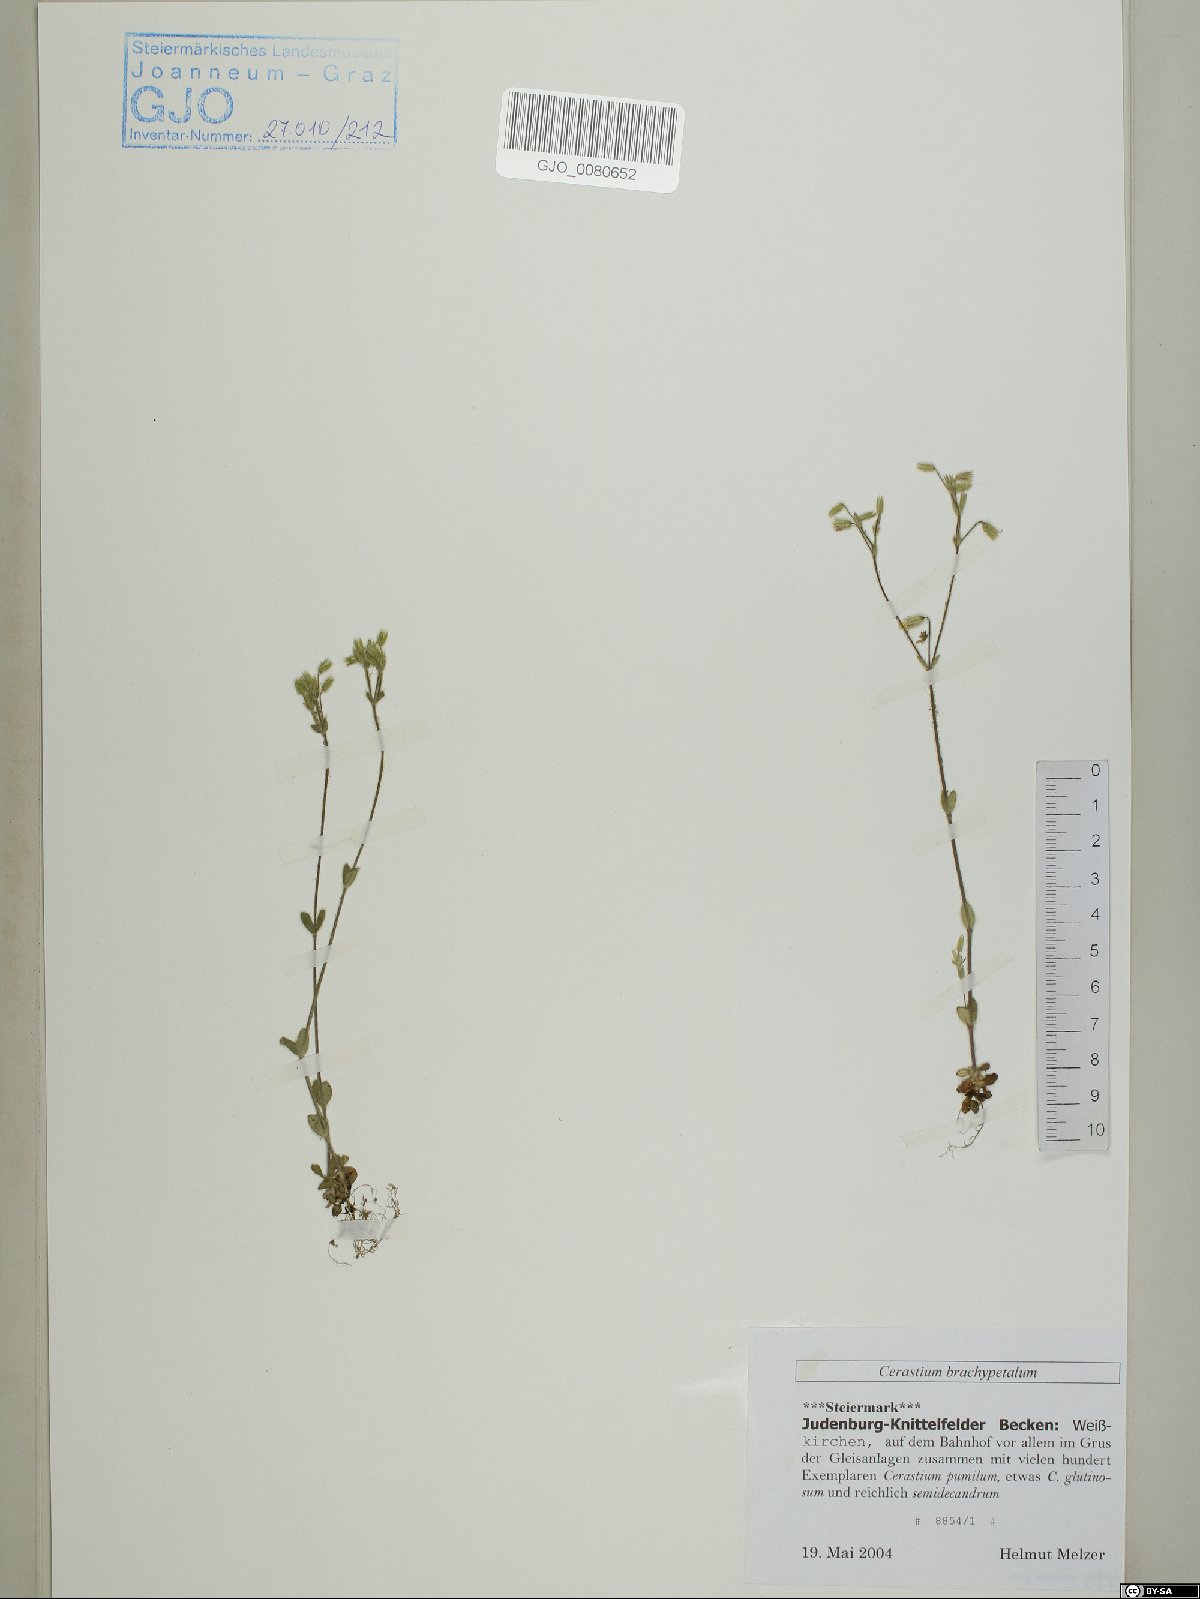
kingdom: Plantae
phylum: Tracheophyta
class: Magnoliopsida
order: Caryophyllales
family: Caryophyllaceae
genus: Cerastium
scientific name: Cerastium brachypetalum
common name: Grey mouse-ear
